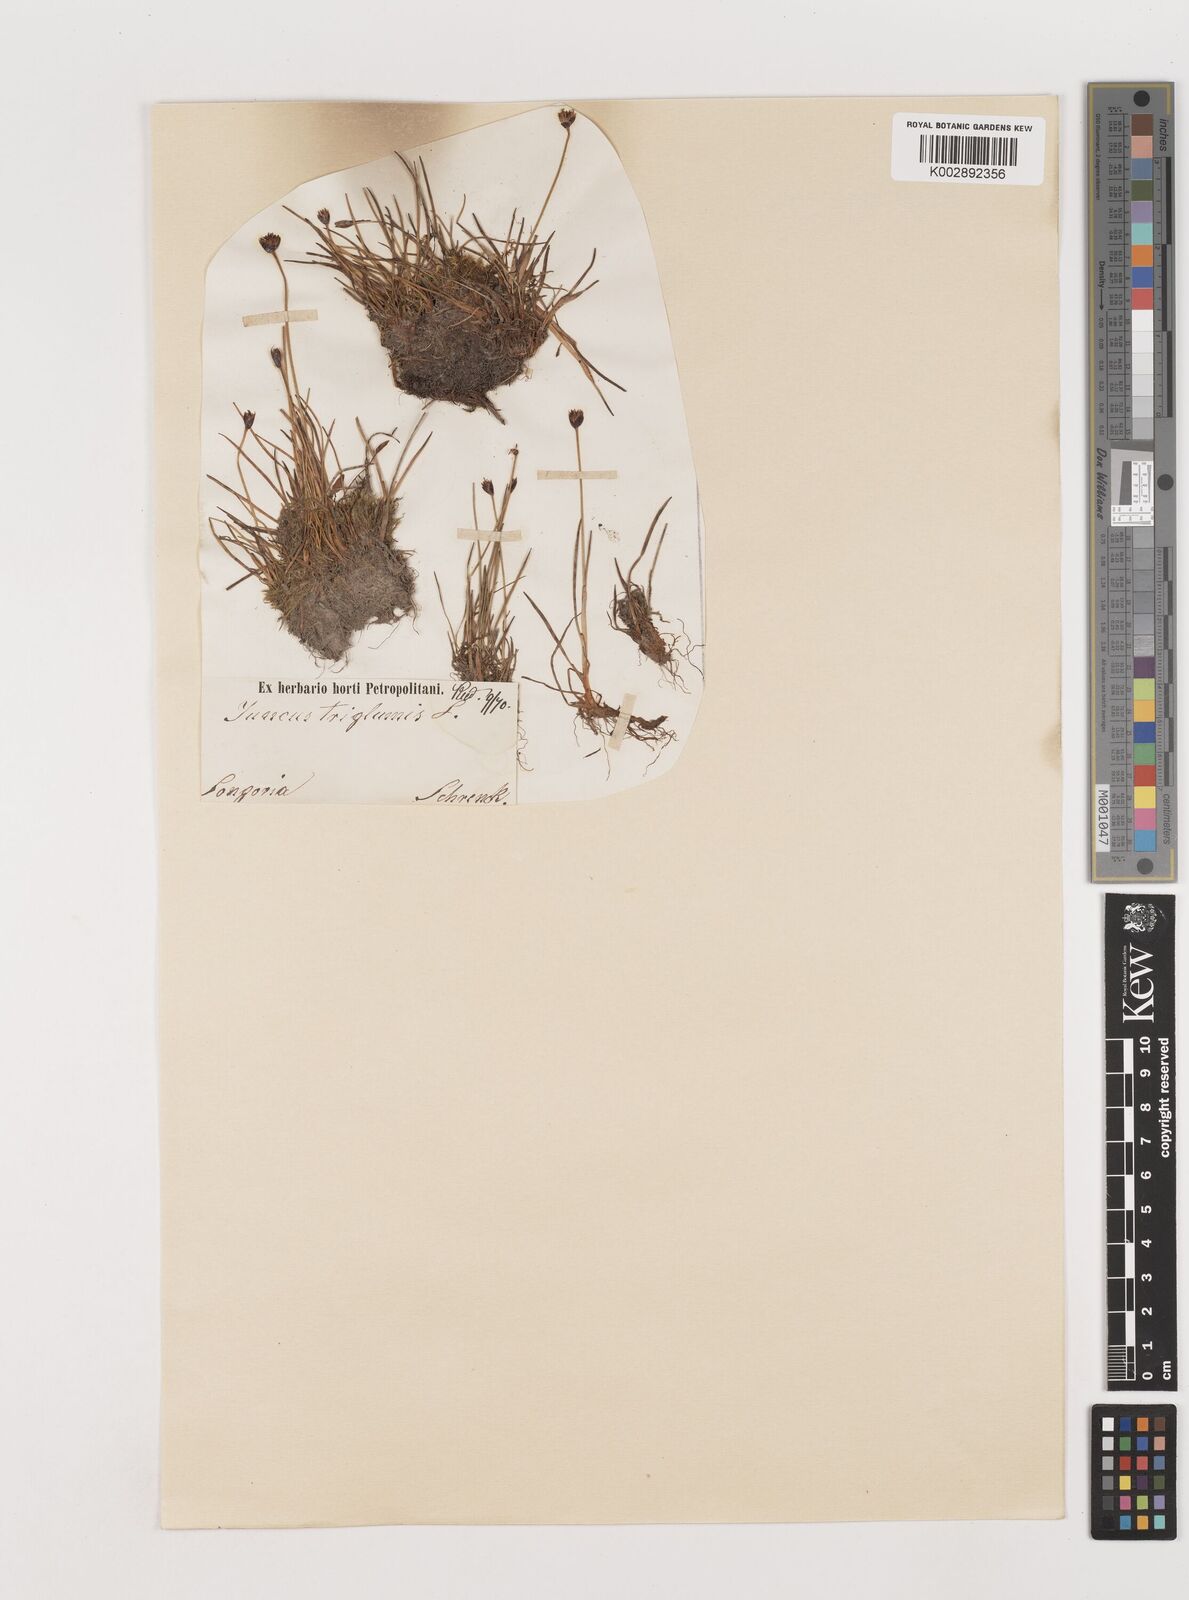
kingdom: Plantae
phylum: Tracheophyta
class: Liliopsida
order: Poales
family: Juncaceae
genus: Juncus
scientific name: Juncus triglumis
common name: Three-flowered rush
